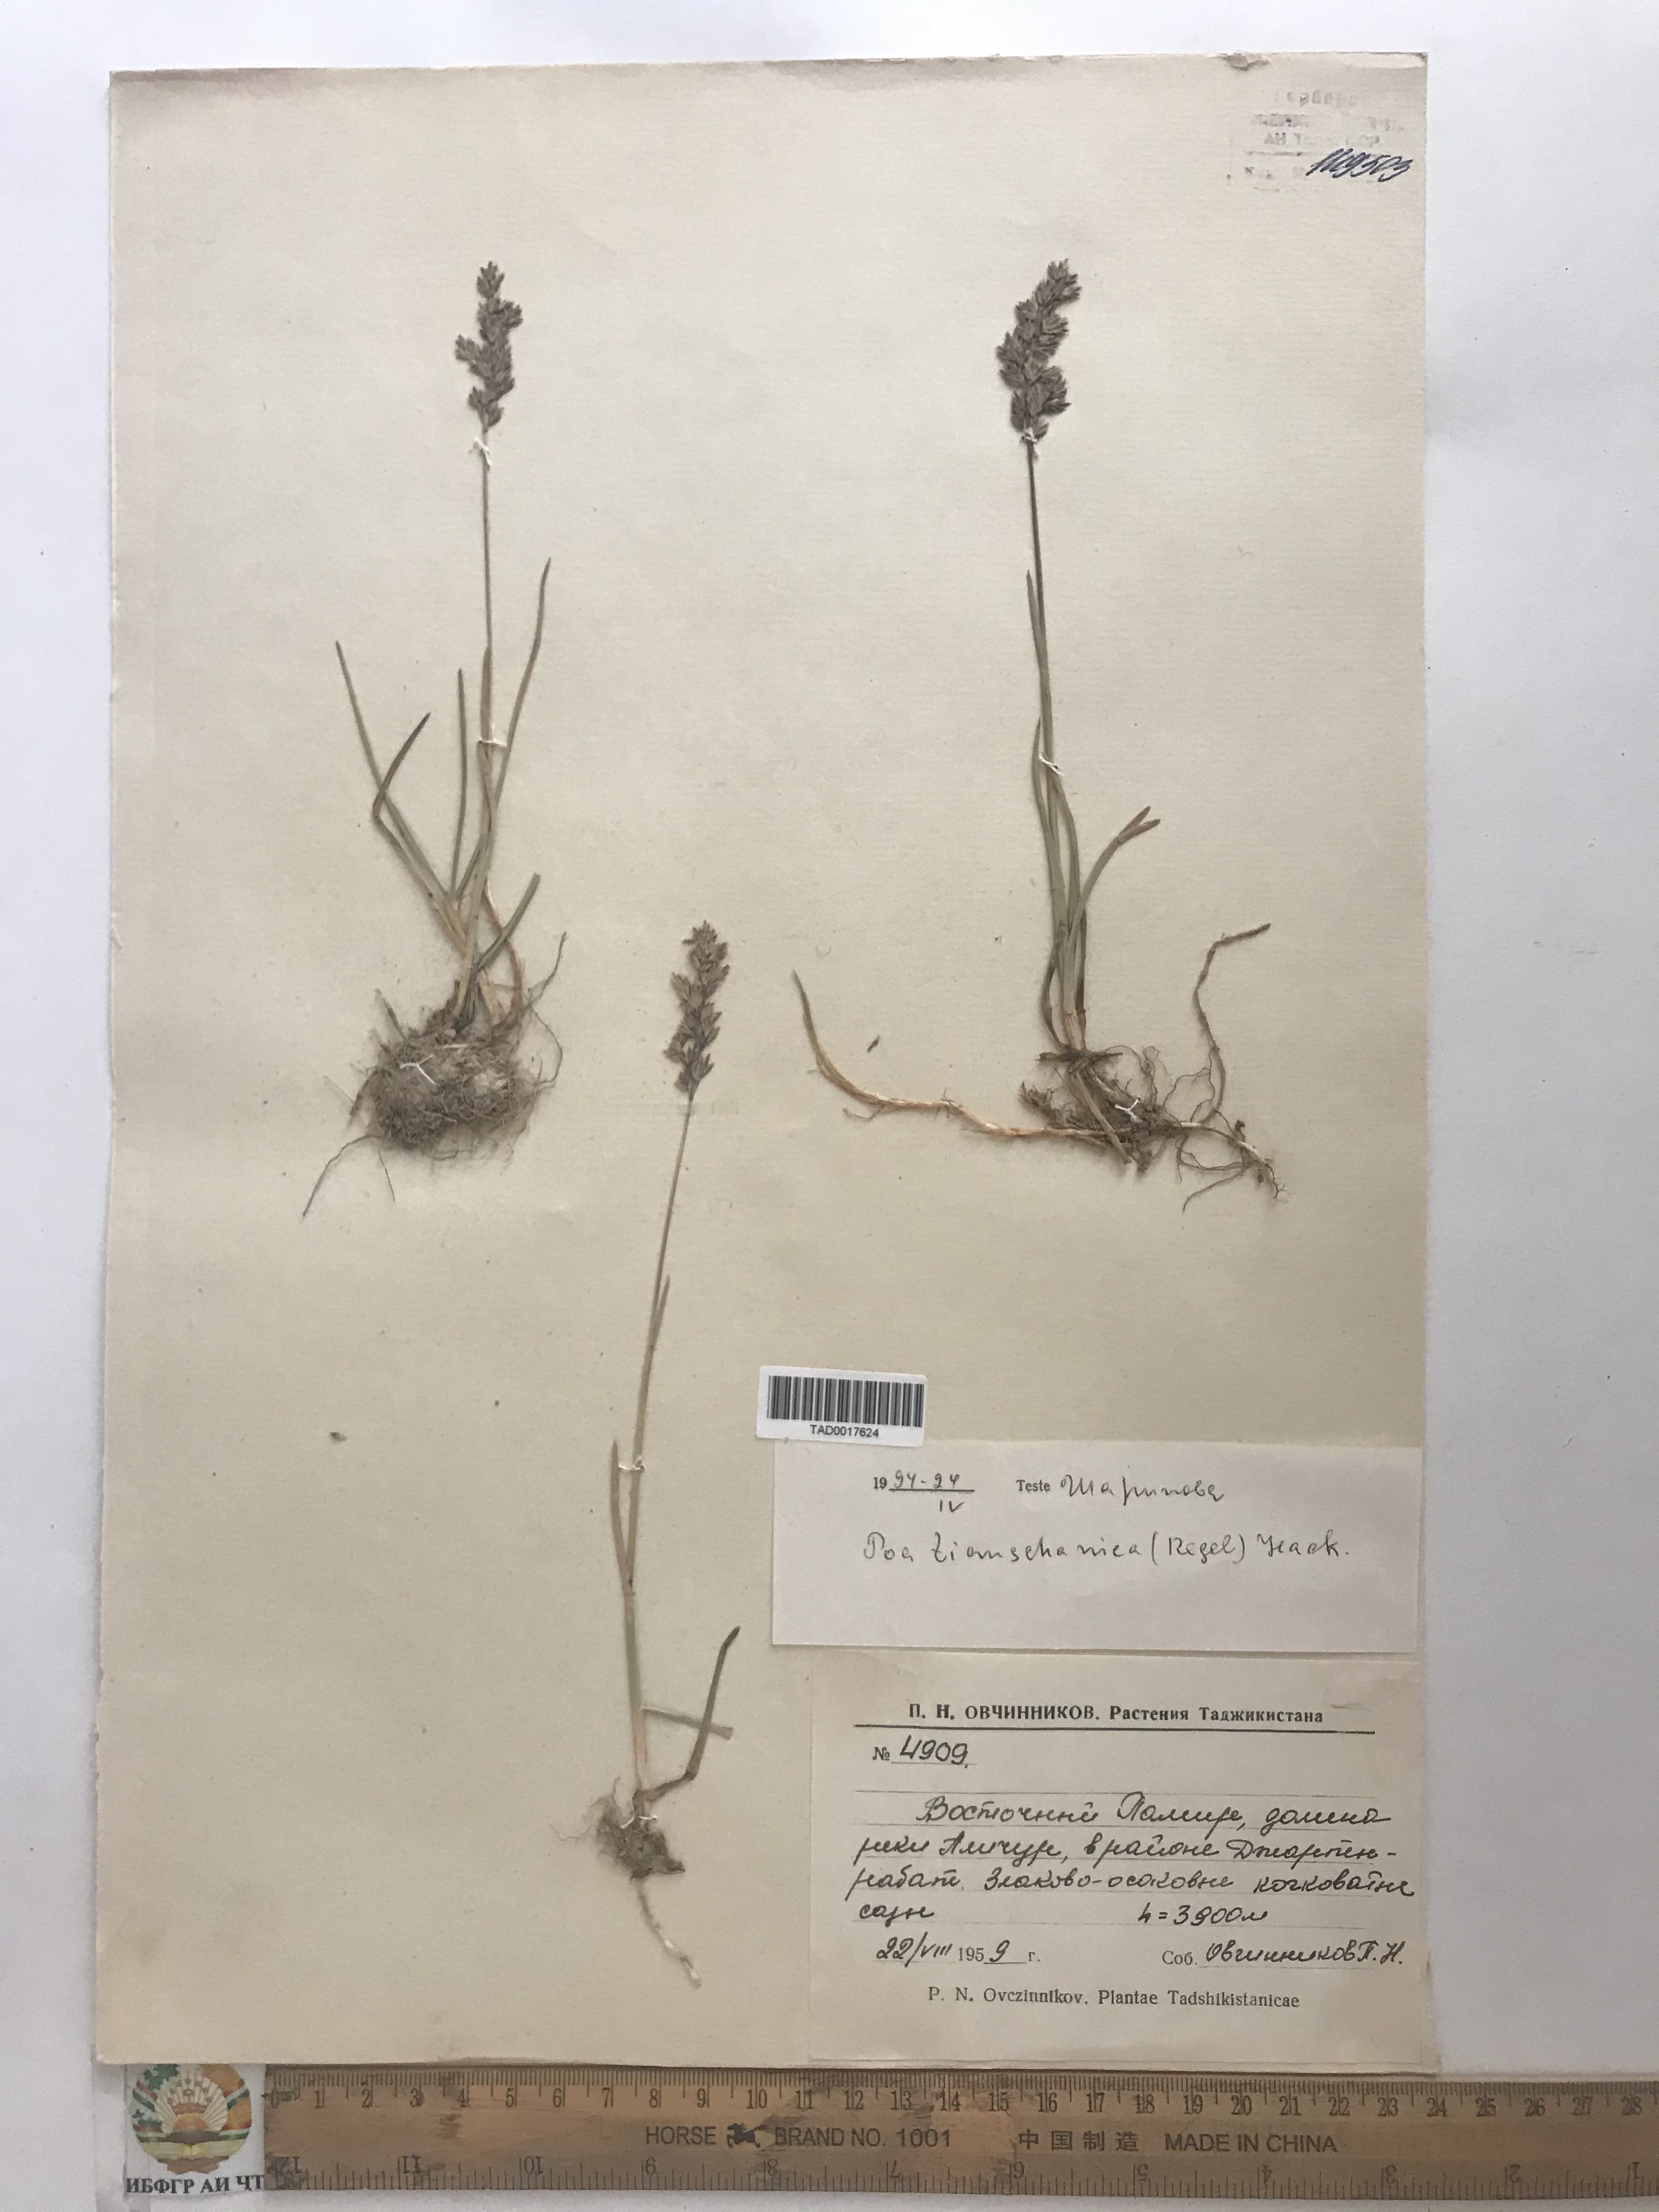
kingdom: Plantae
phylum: Tracheophyta
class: Liliopsida
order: Poales
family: Poaceae
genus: Poa
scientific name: Poa tianschanica
